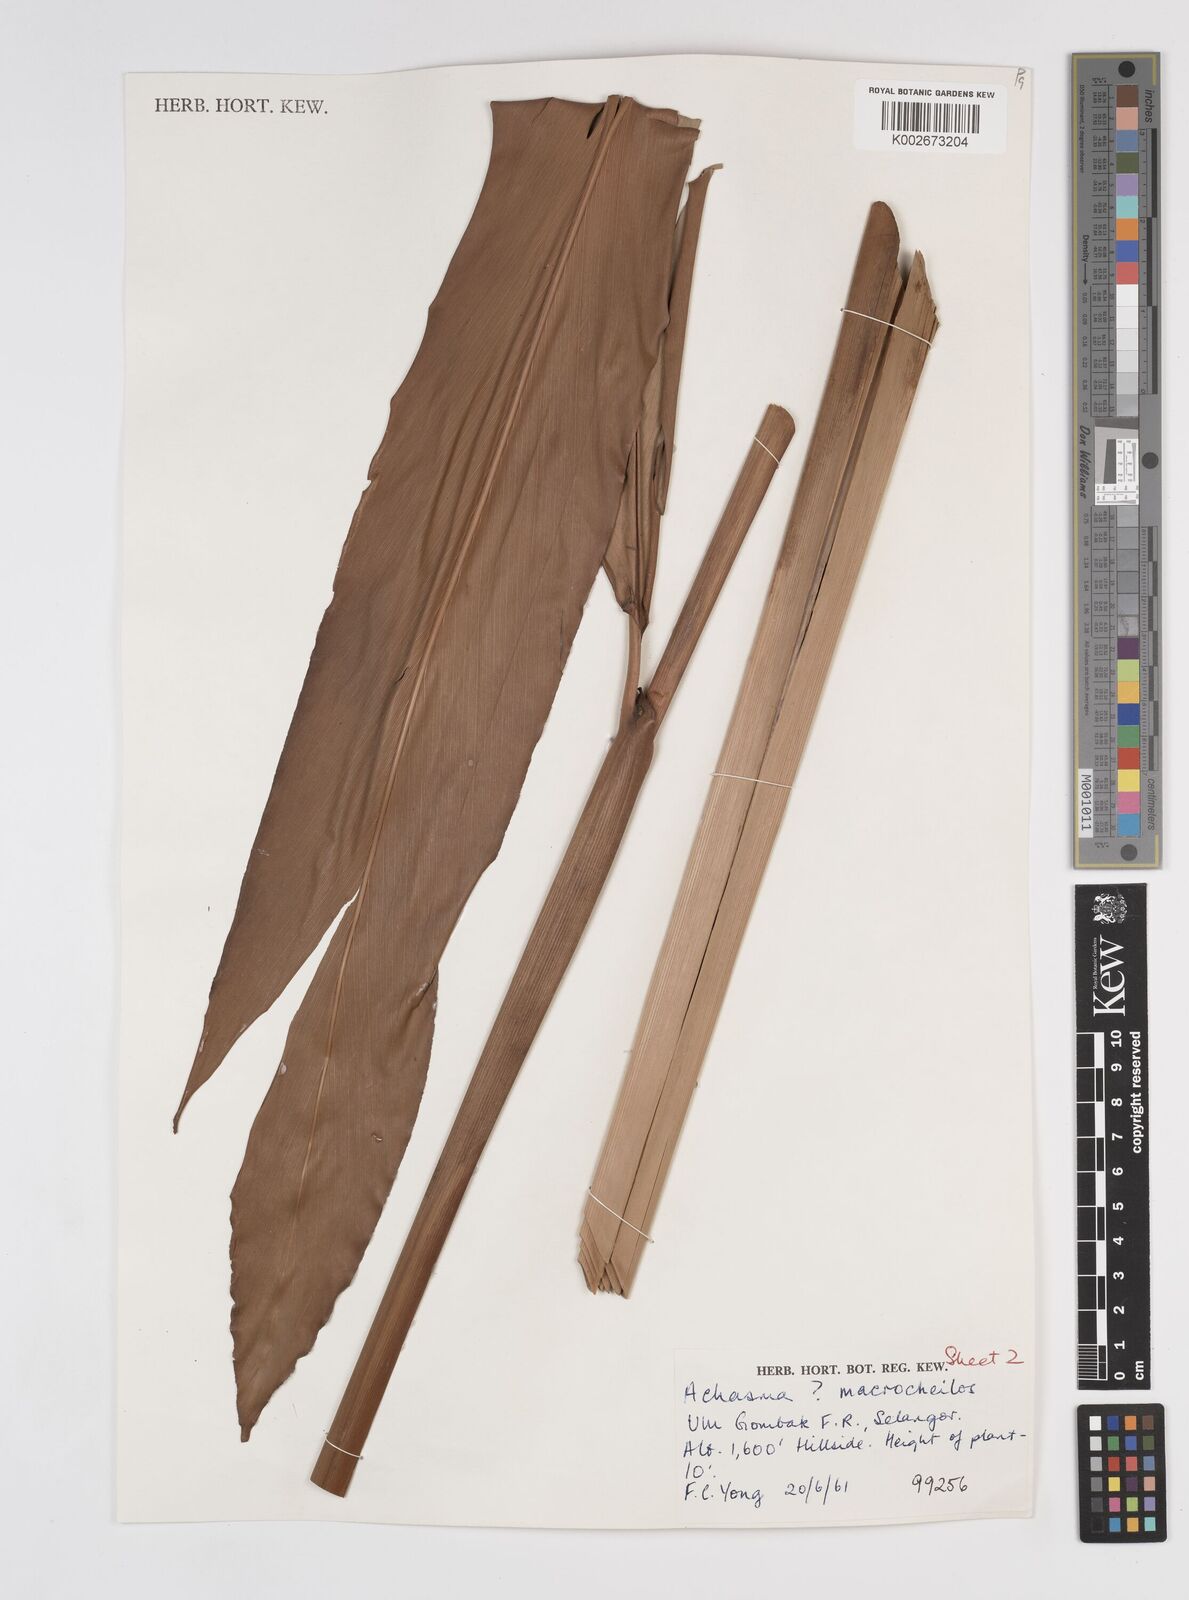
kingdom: Plantae
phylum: Tracheophyta
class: Liliopsida
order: Zingiberales
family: Zingiberaceae
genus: Amomum
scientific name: Amomum
